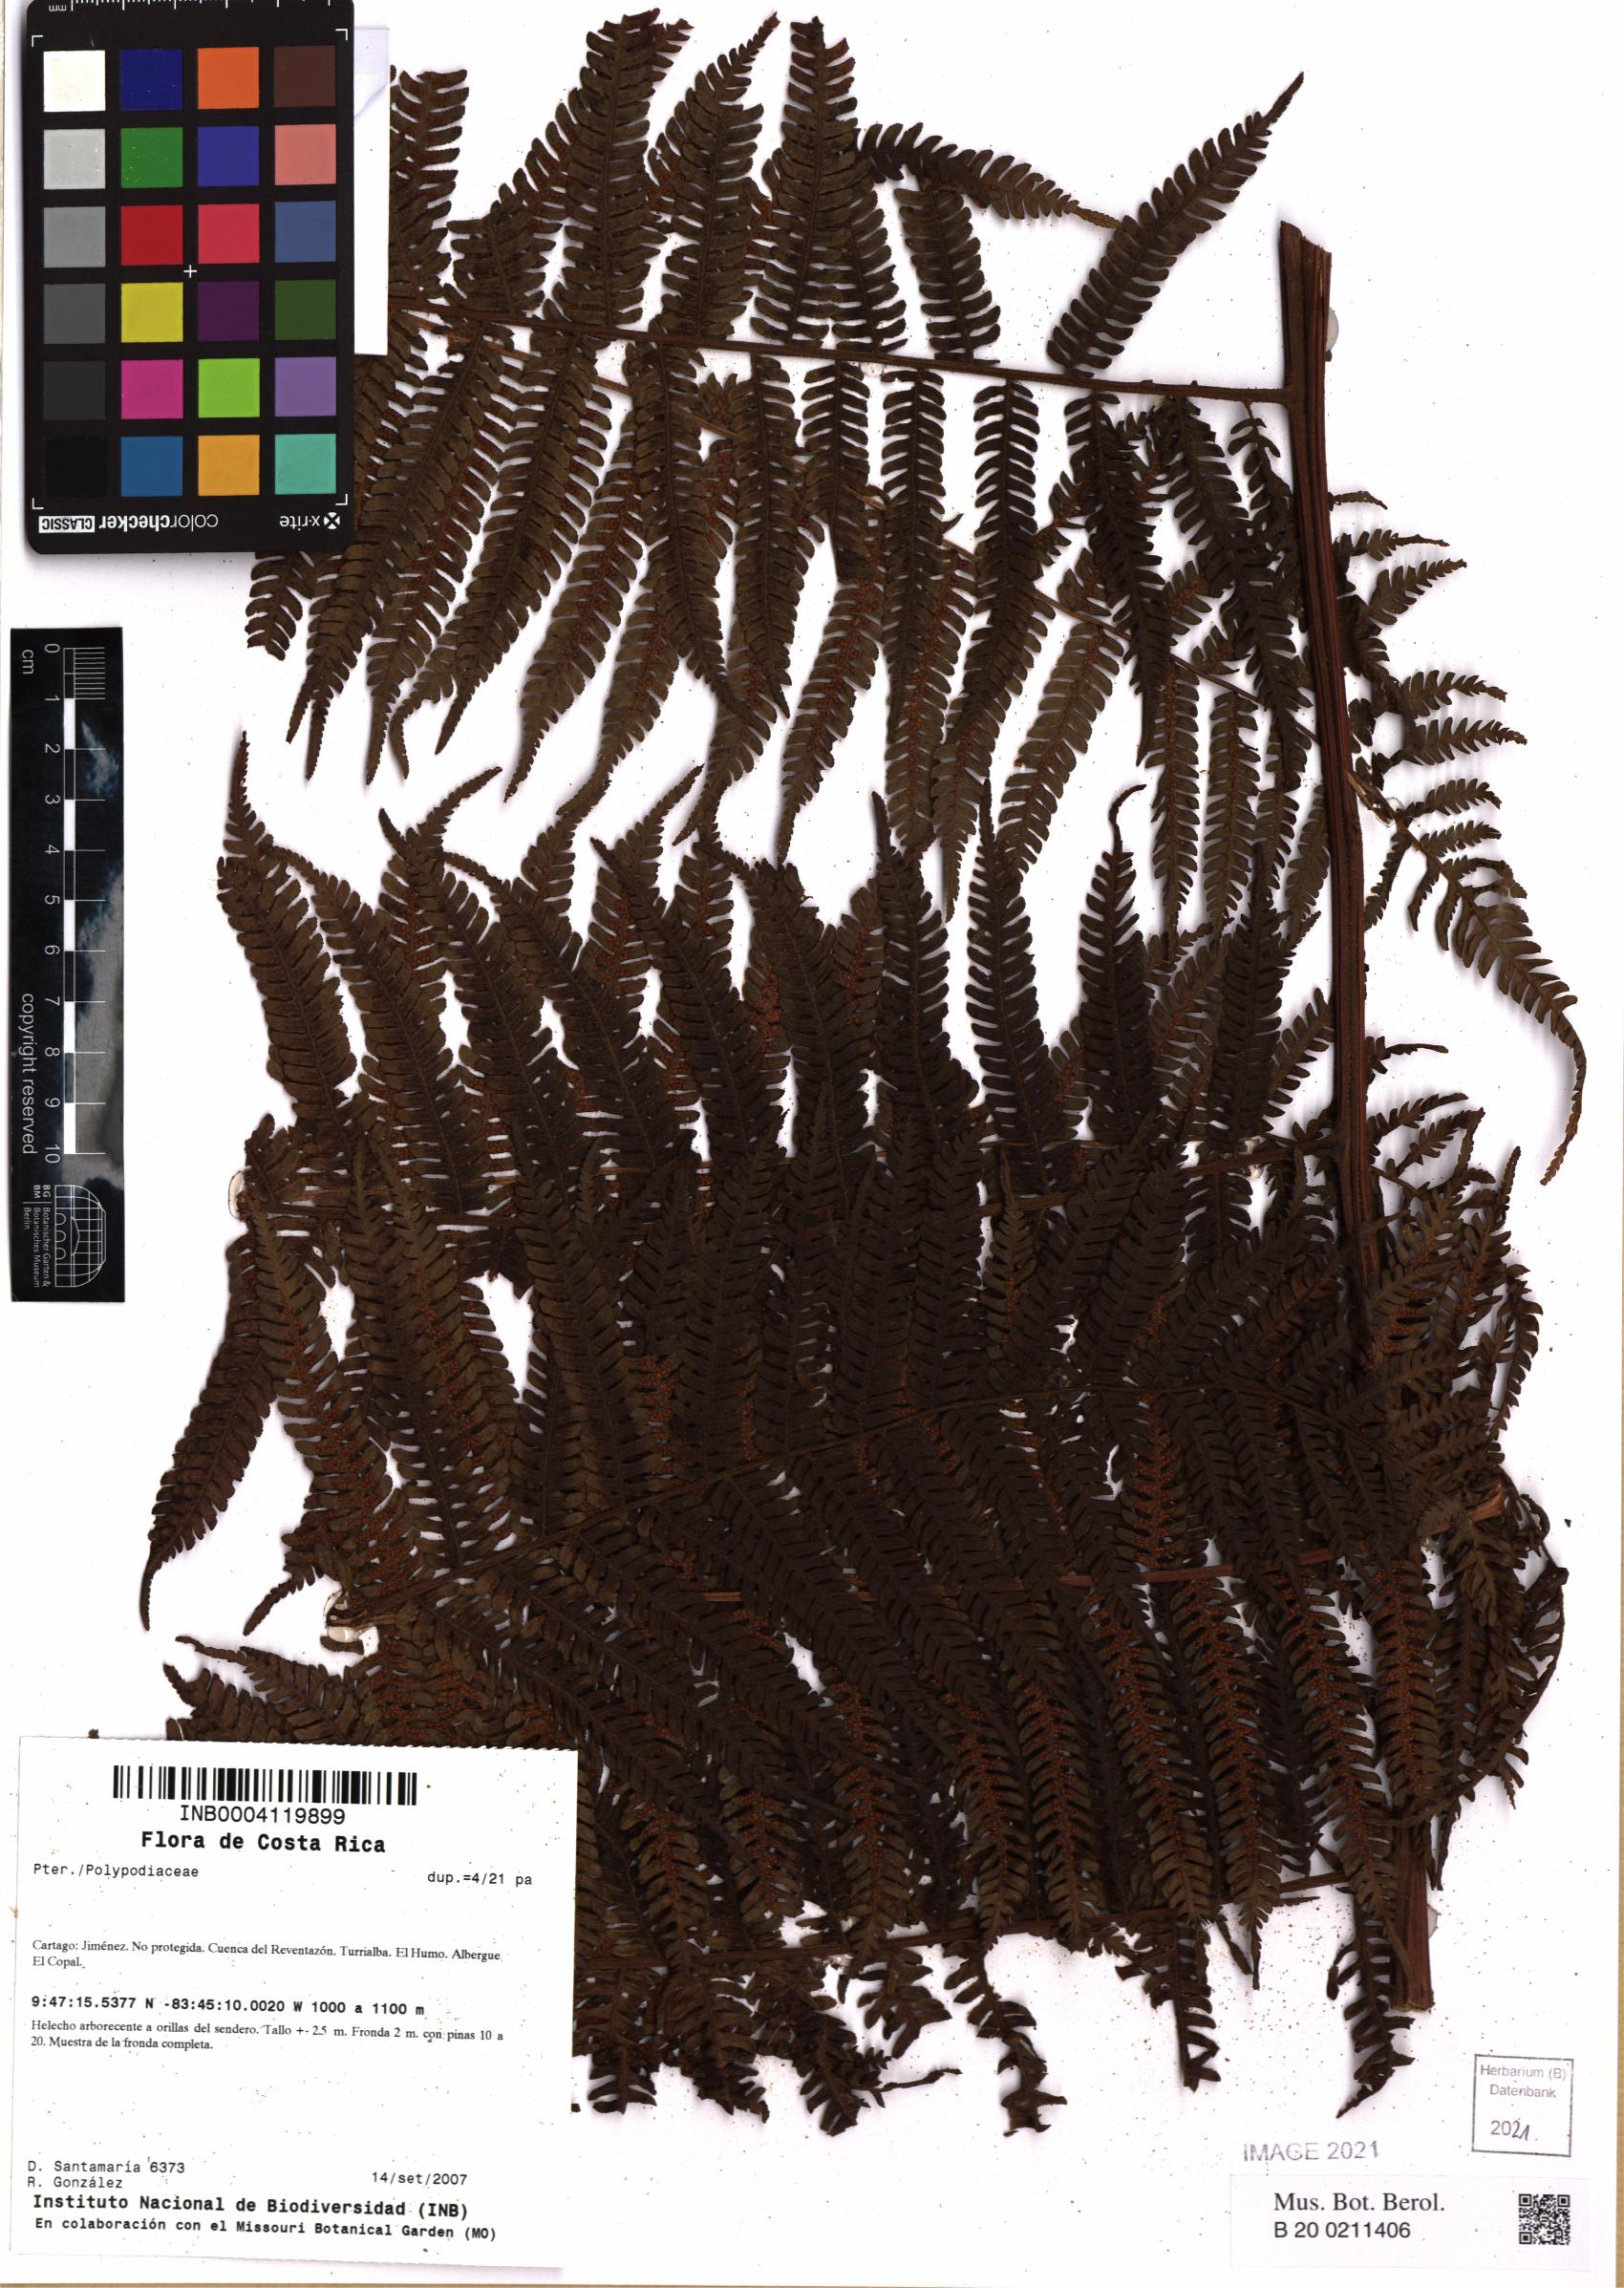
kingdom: Plantae
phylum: Tracheophyta
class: Polypodiopsida
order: Polypodiales
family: Polypodiaceae
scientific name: Polypodiaceae
